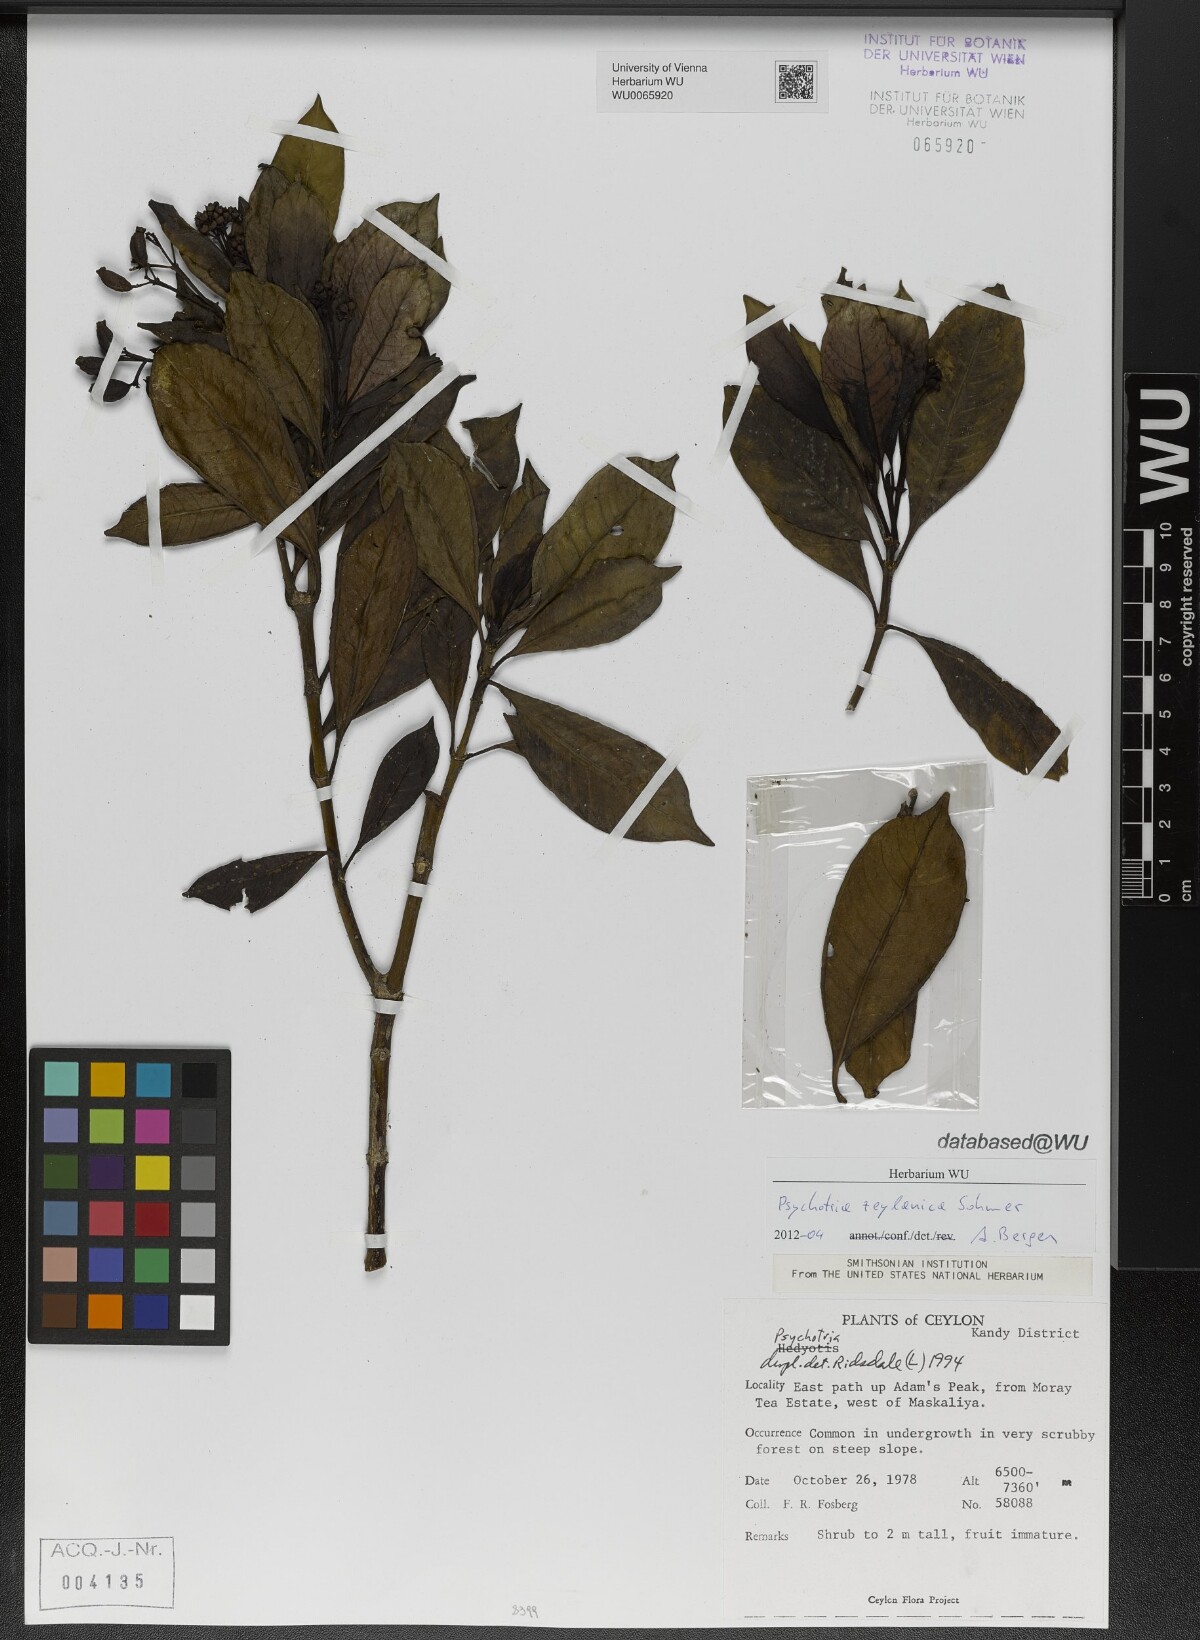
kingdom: Plantae
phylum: Tracheophyta
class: Magnoliopsida
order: Gentianales
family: Rubiaceae
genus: Psychotria
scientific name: Psychotria zeylanica
